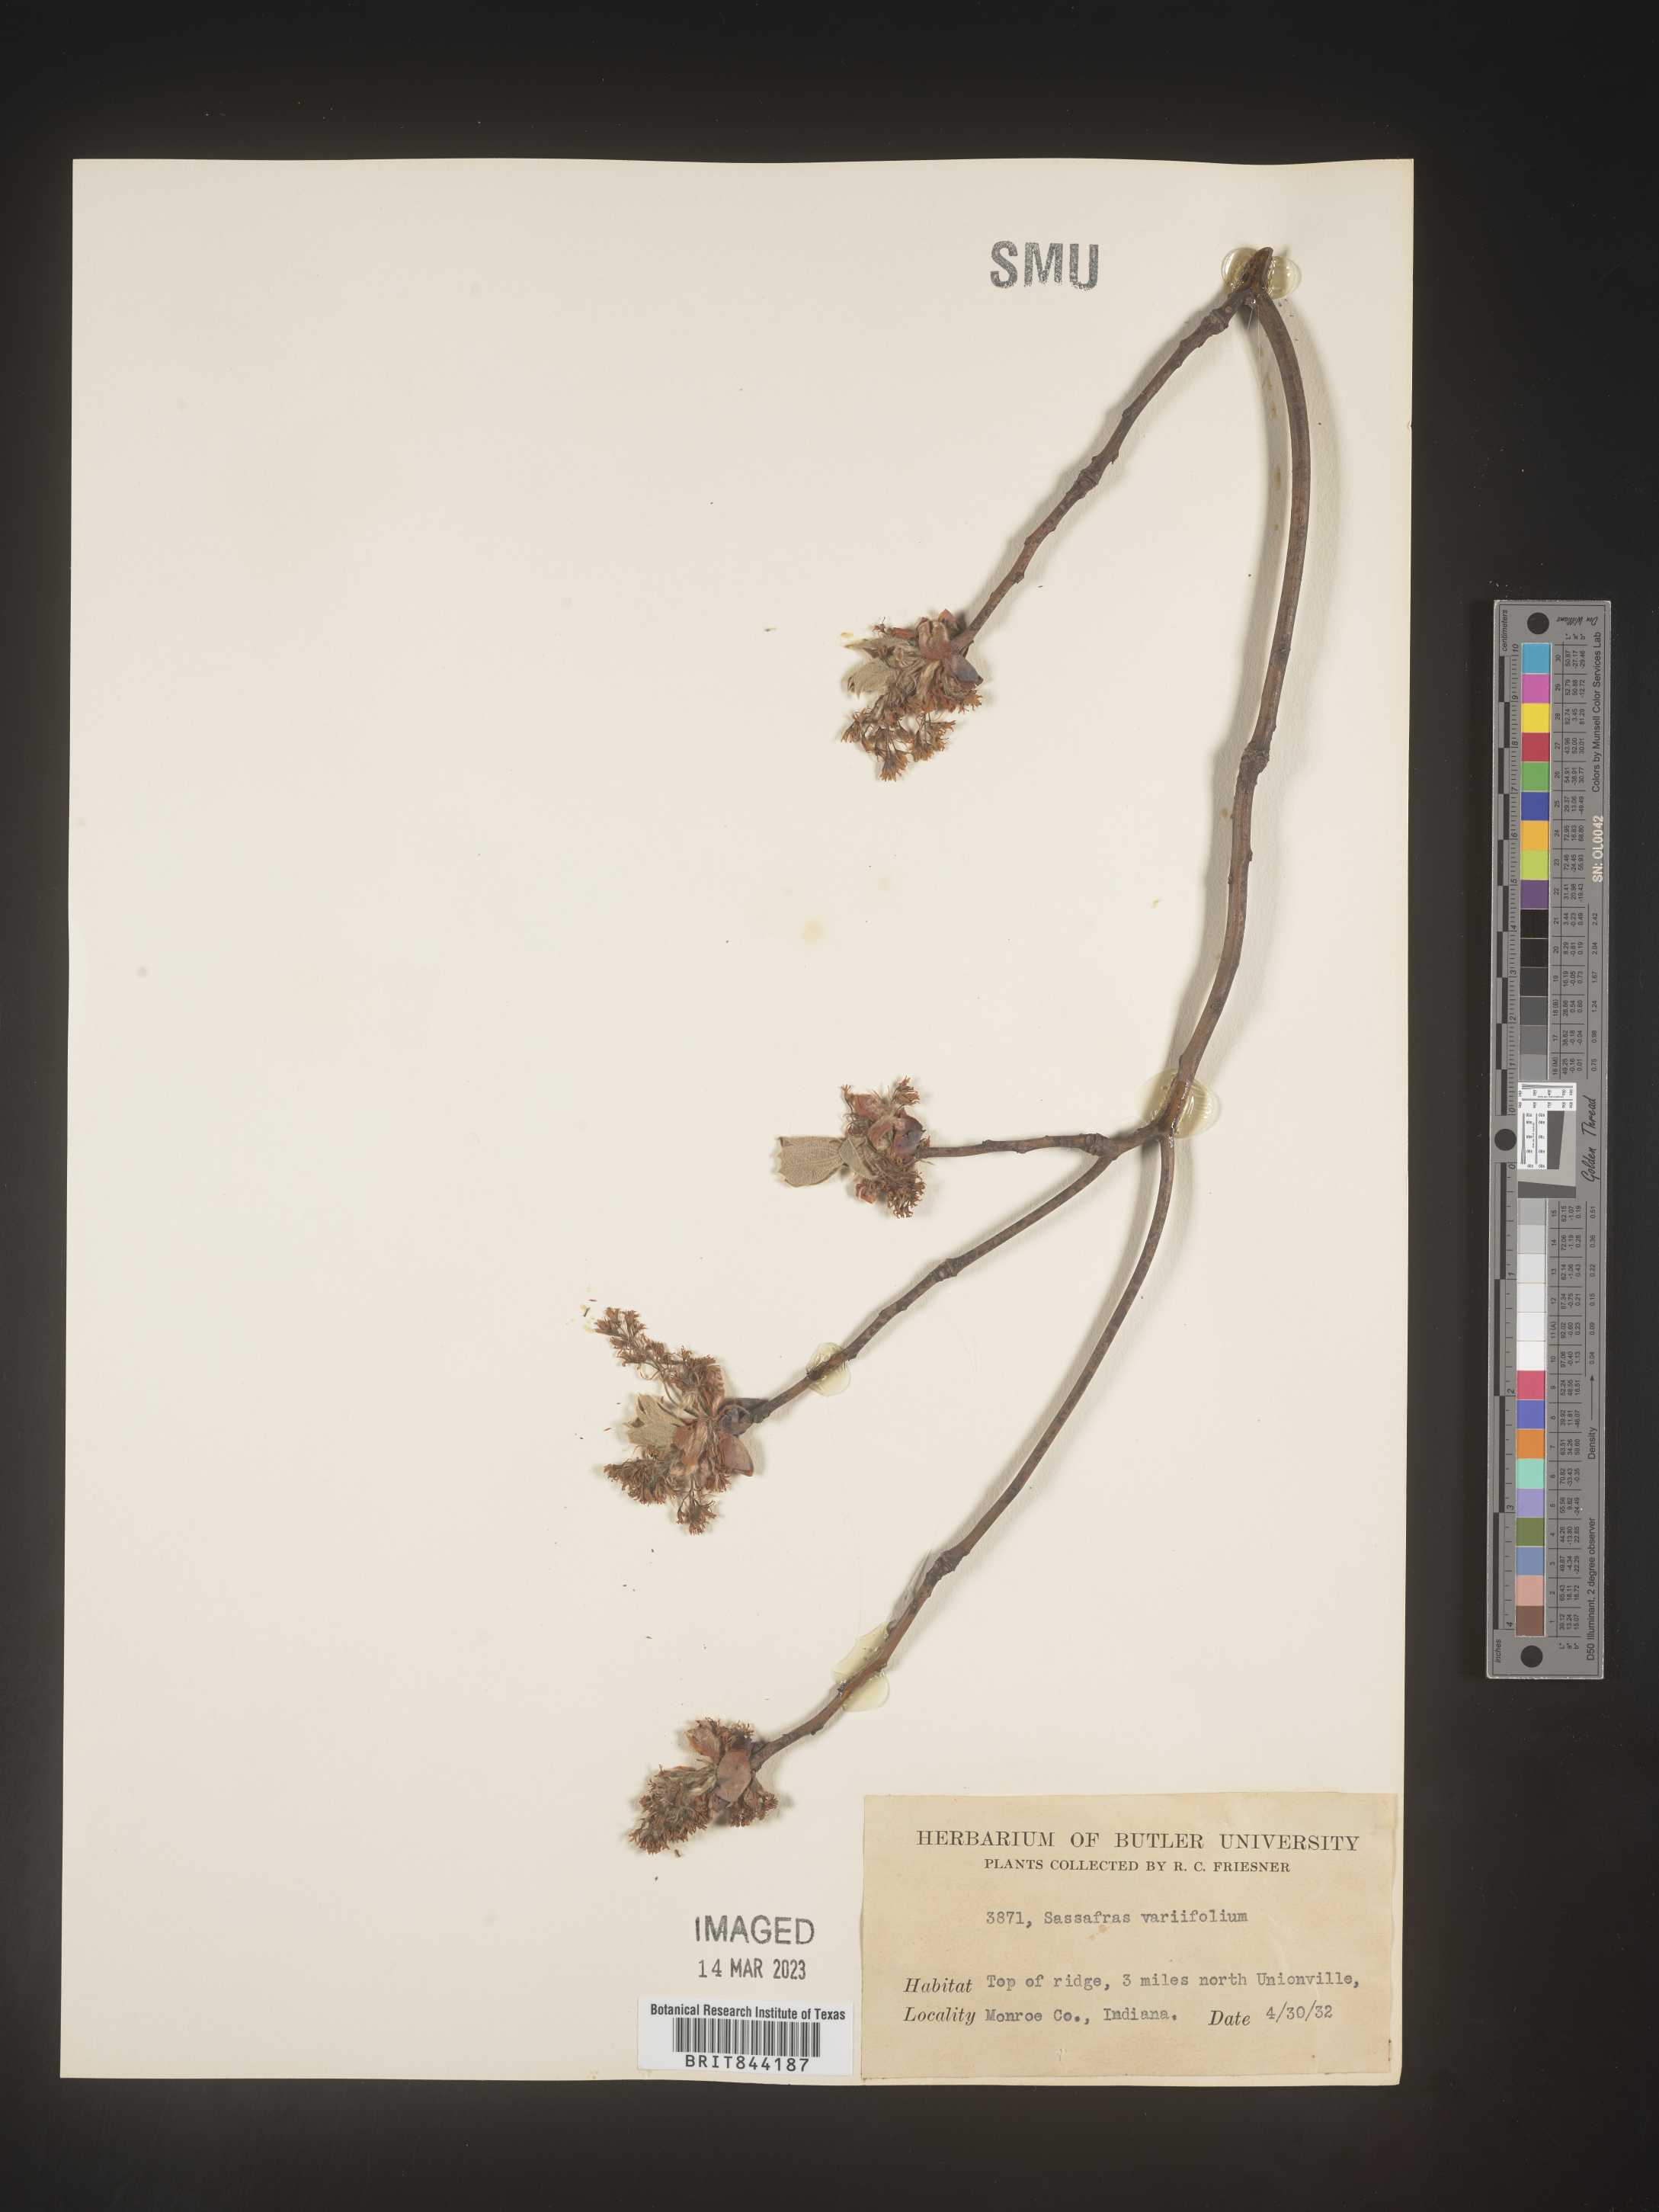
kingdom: Plantae
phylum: Tracheophyta
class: Magnoliopsida
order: Laurales
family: Lauraceae
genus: Sassafras
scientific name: Sassafras albidum
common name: Sassafras
